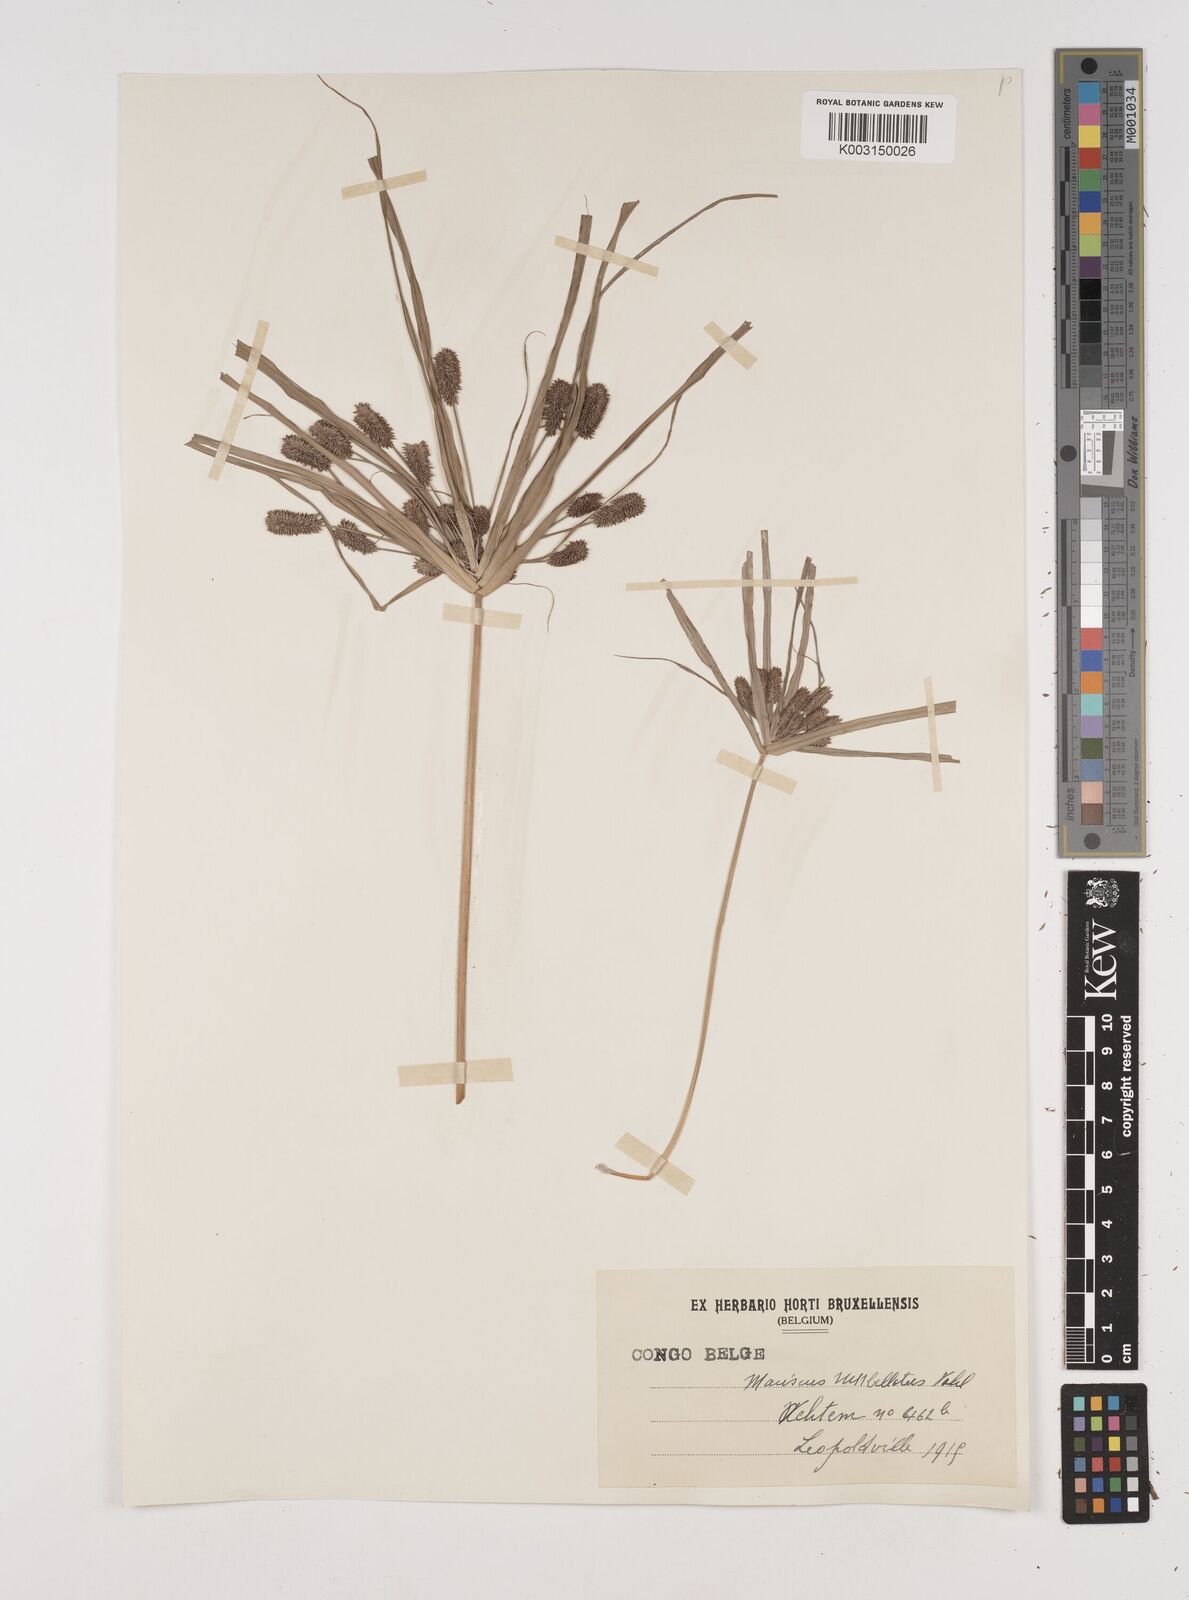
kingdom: Plantae
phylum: Tracheophyta
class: Liliopsida
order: Poales
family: Cyperaceae
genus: Cyperus
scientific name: Cyperus cyperoides
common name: Pacific island flat sedge
